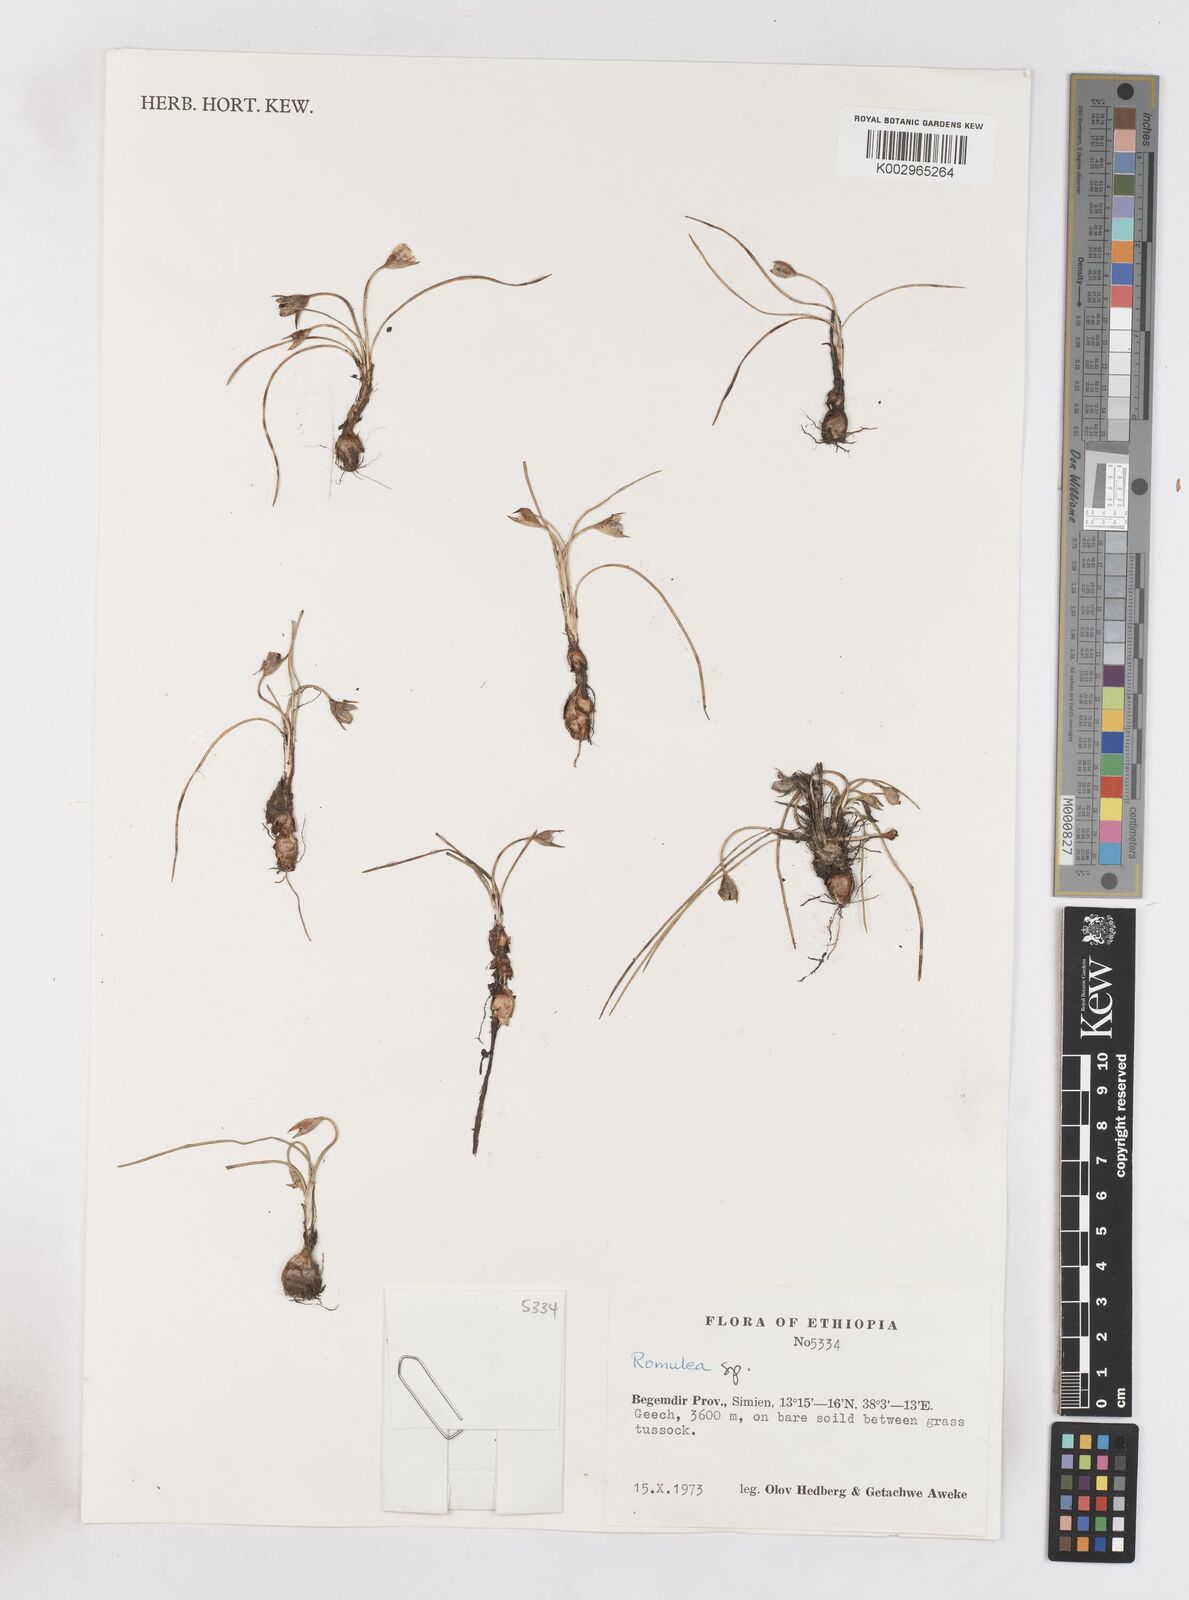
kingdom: Plantae
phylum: Tracheophyta
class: Liliopsida
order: Asparagales
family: Iridaceae
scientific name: Iridaceae
